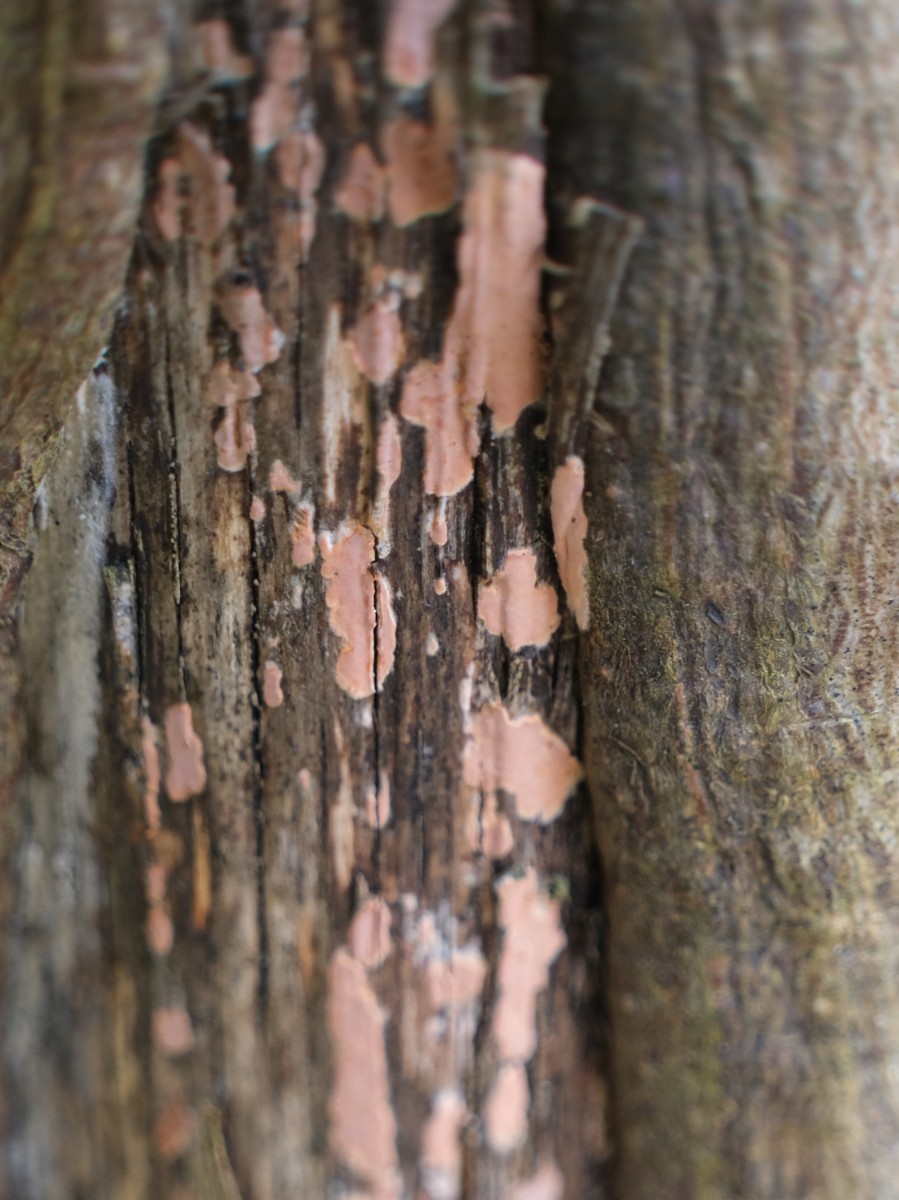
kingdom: Fungi
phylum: Basidiomycota
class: Agaricomycetes
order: Russulales
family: Peniophoraceae
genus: Peniophora
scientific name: Peniophora incarnata
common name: laksefarvet voksskind
